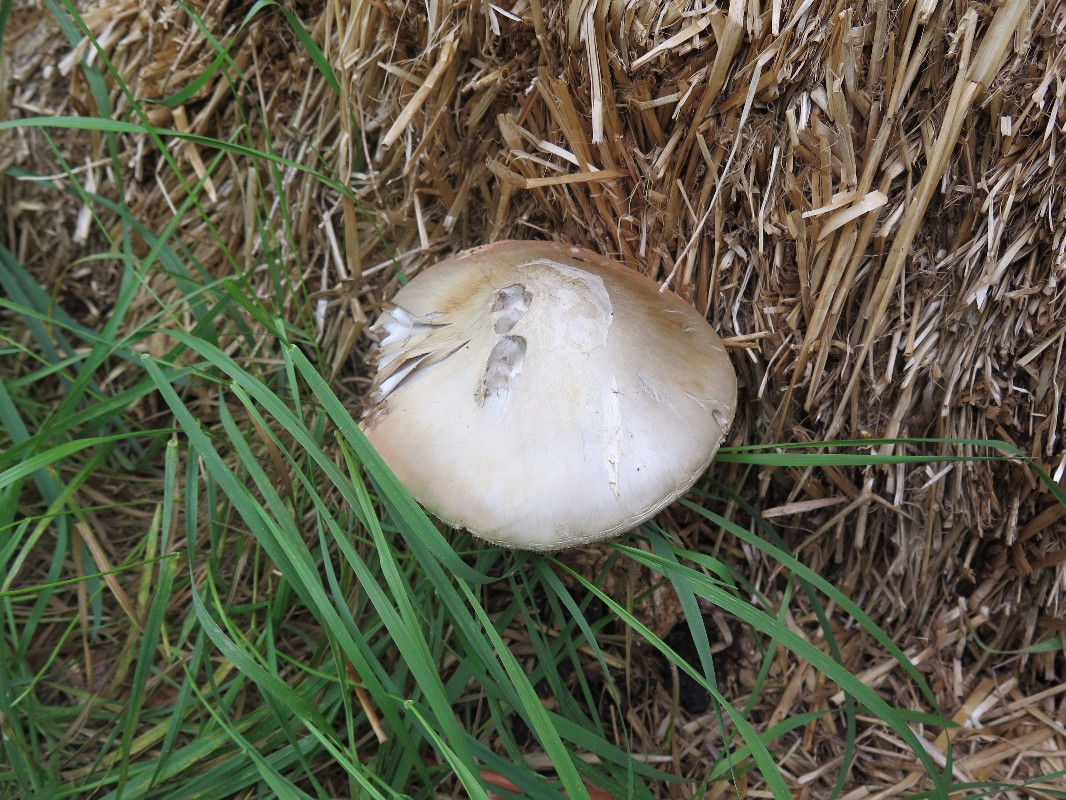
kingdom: Fungi
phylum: Basidiomycota
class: Agaricomycetes
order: Agaricales
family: Pluteaceae
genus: Volvopluteus
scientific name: Volvopluteus gloiocephalus
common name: høj posesvamp
